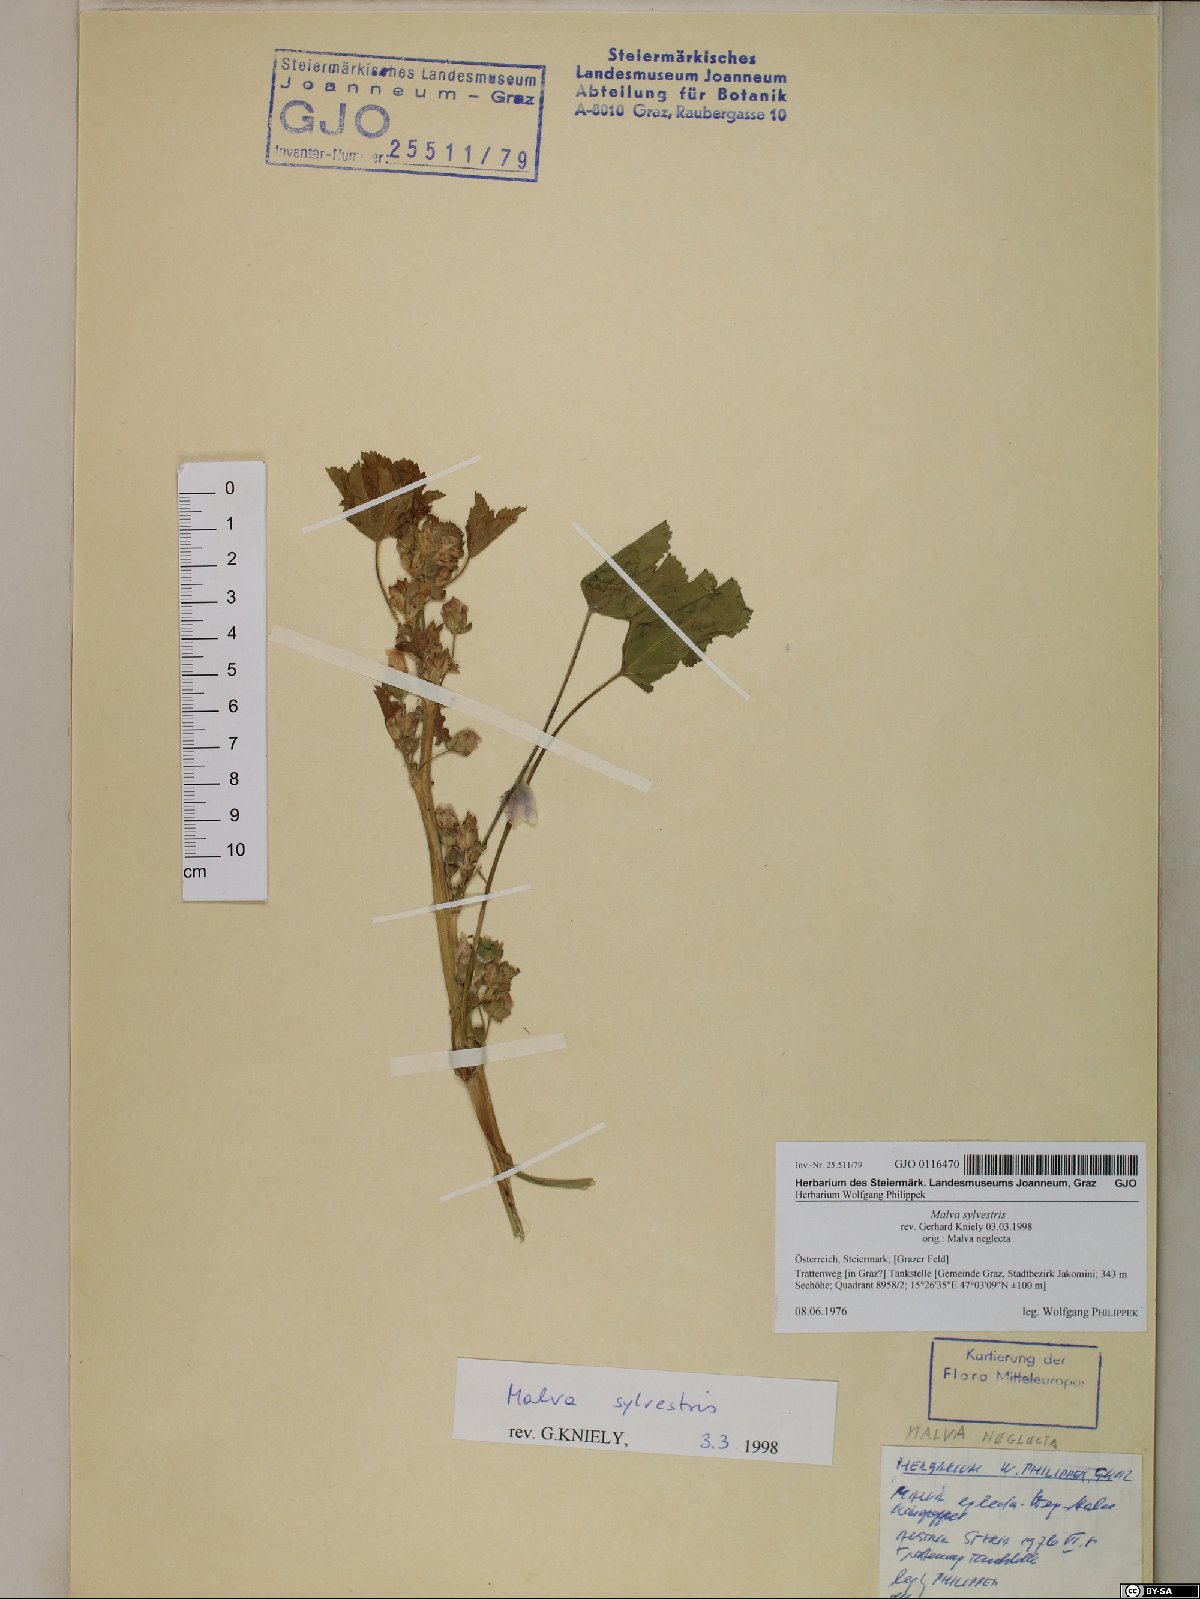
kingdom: Plantae
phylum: Tracheophyta
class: Magnoliopsida
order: Malvales
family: Malvaceae
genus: Malva
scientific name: Malva sylvestris
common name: Common mallow
